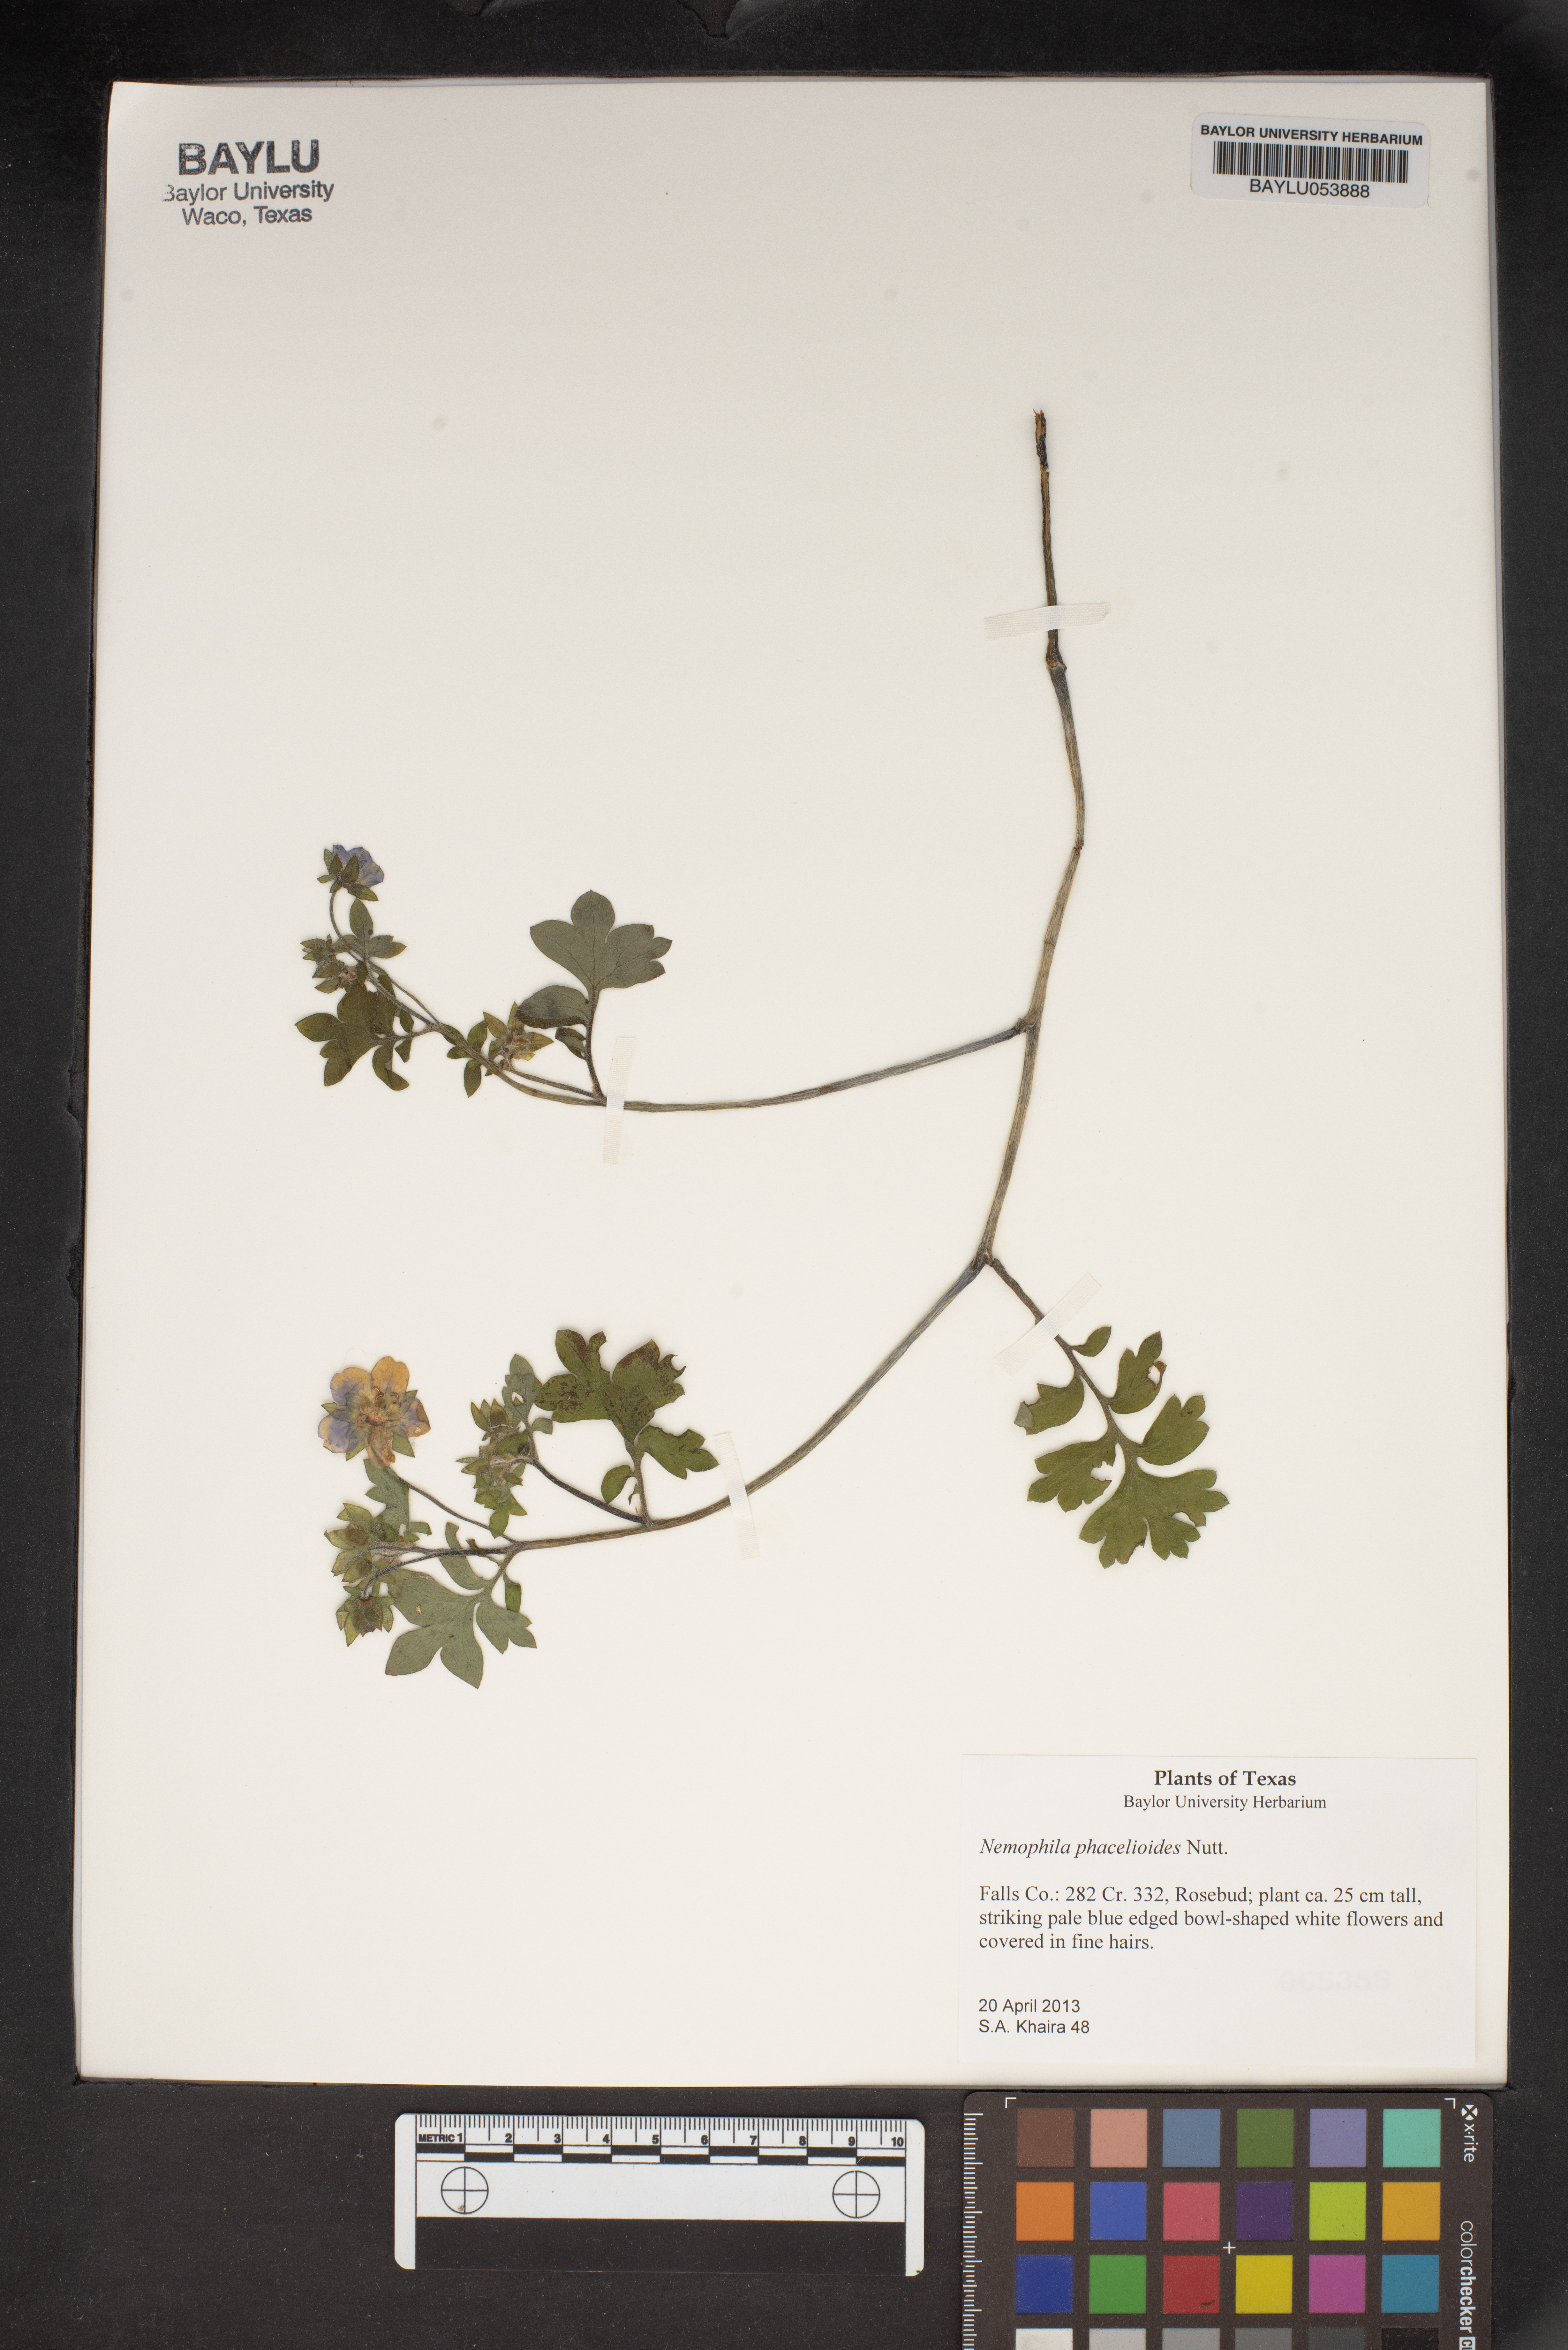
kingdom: Plantae
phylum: Tracheophyta
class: Magnoliopsida
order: Boraginales
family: Hydrophyllaceae
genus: Nemophila
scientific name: Nemophila phacelioides
